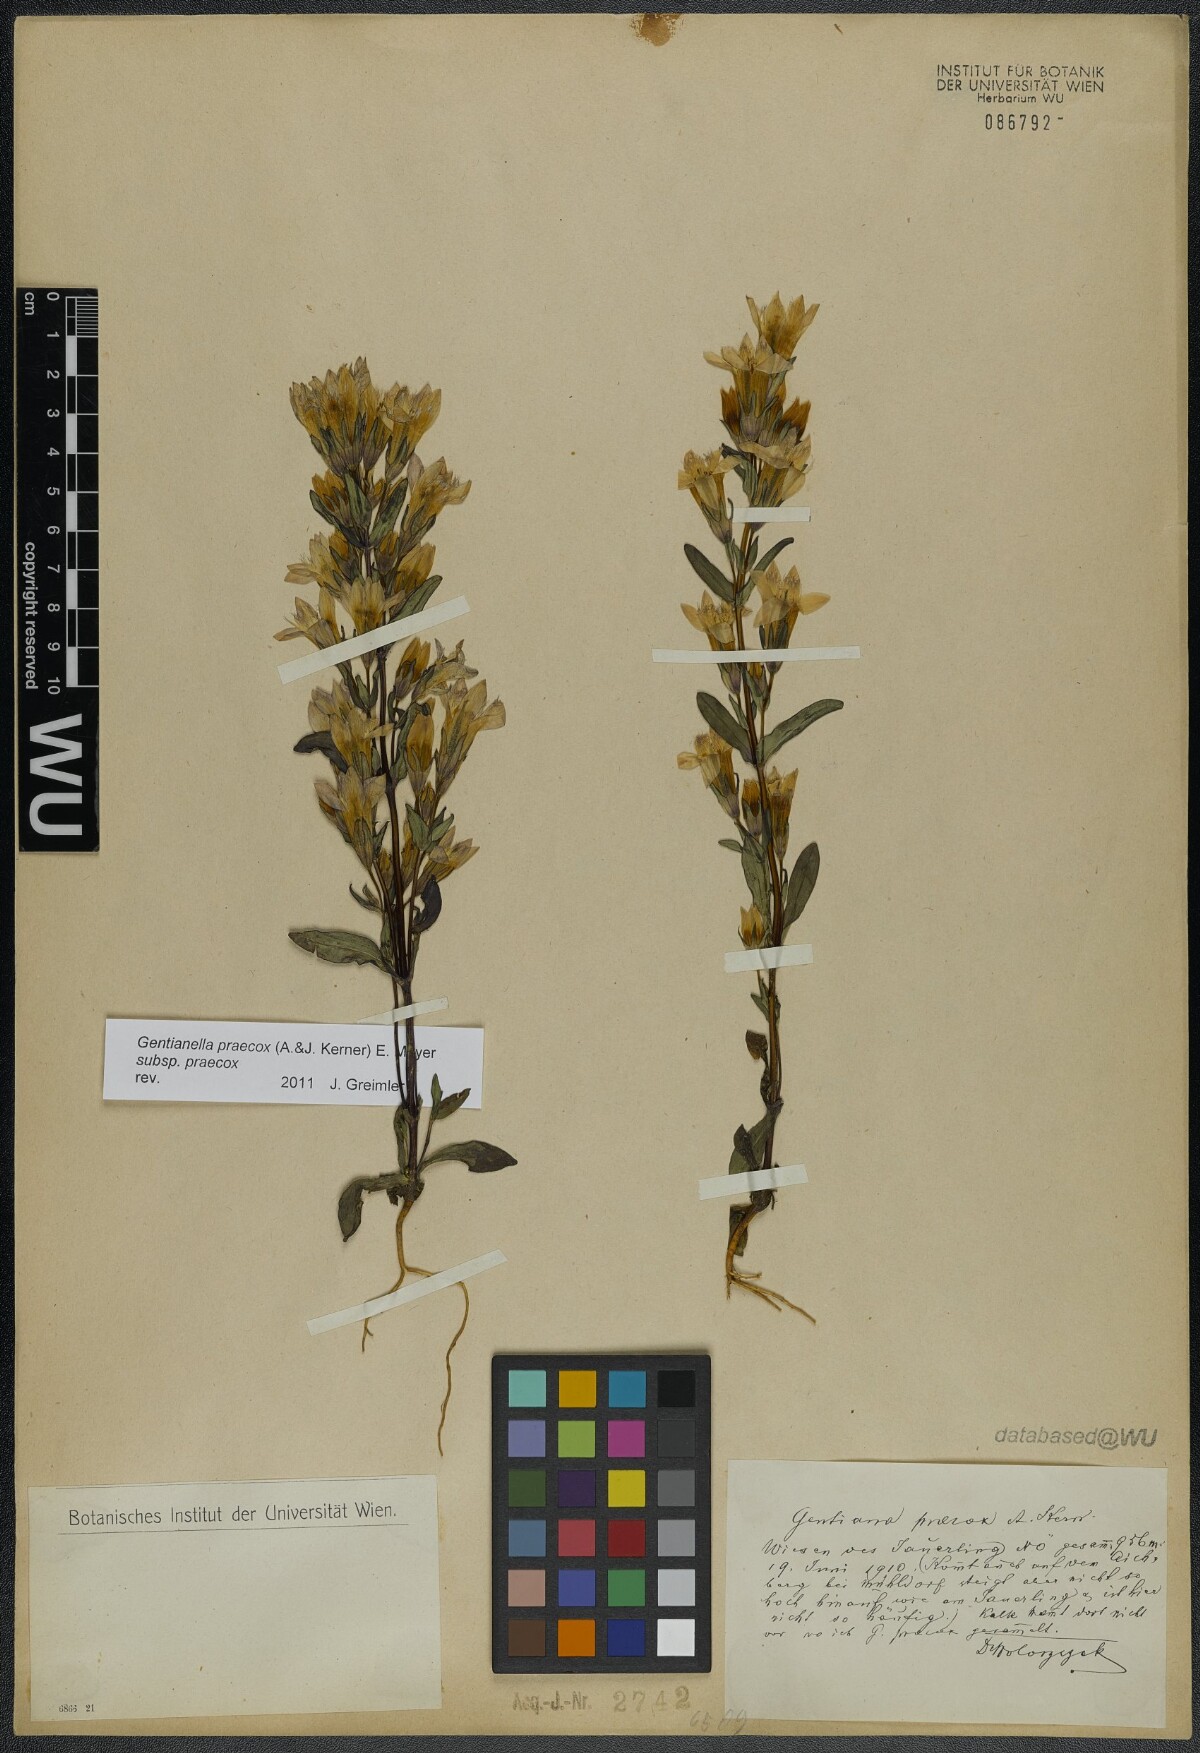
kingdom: Plantae
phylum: Tracheophyta
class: Magnoliopsida
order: Gentianales
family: Gentianaceae
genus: Gentianella
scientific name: Gentianella praecox
